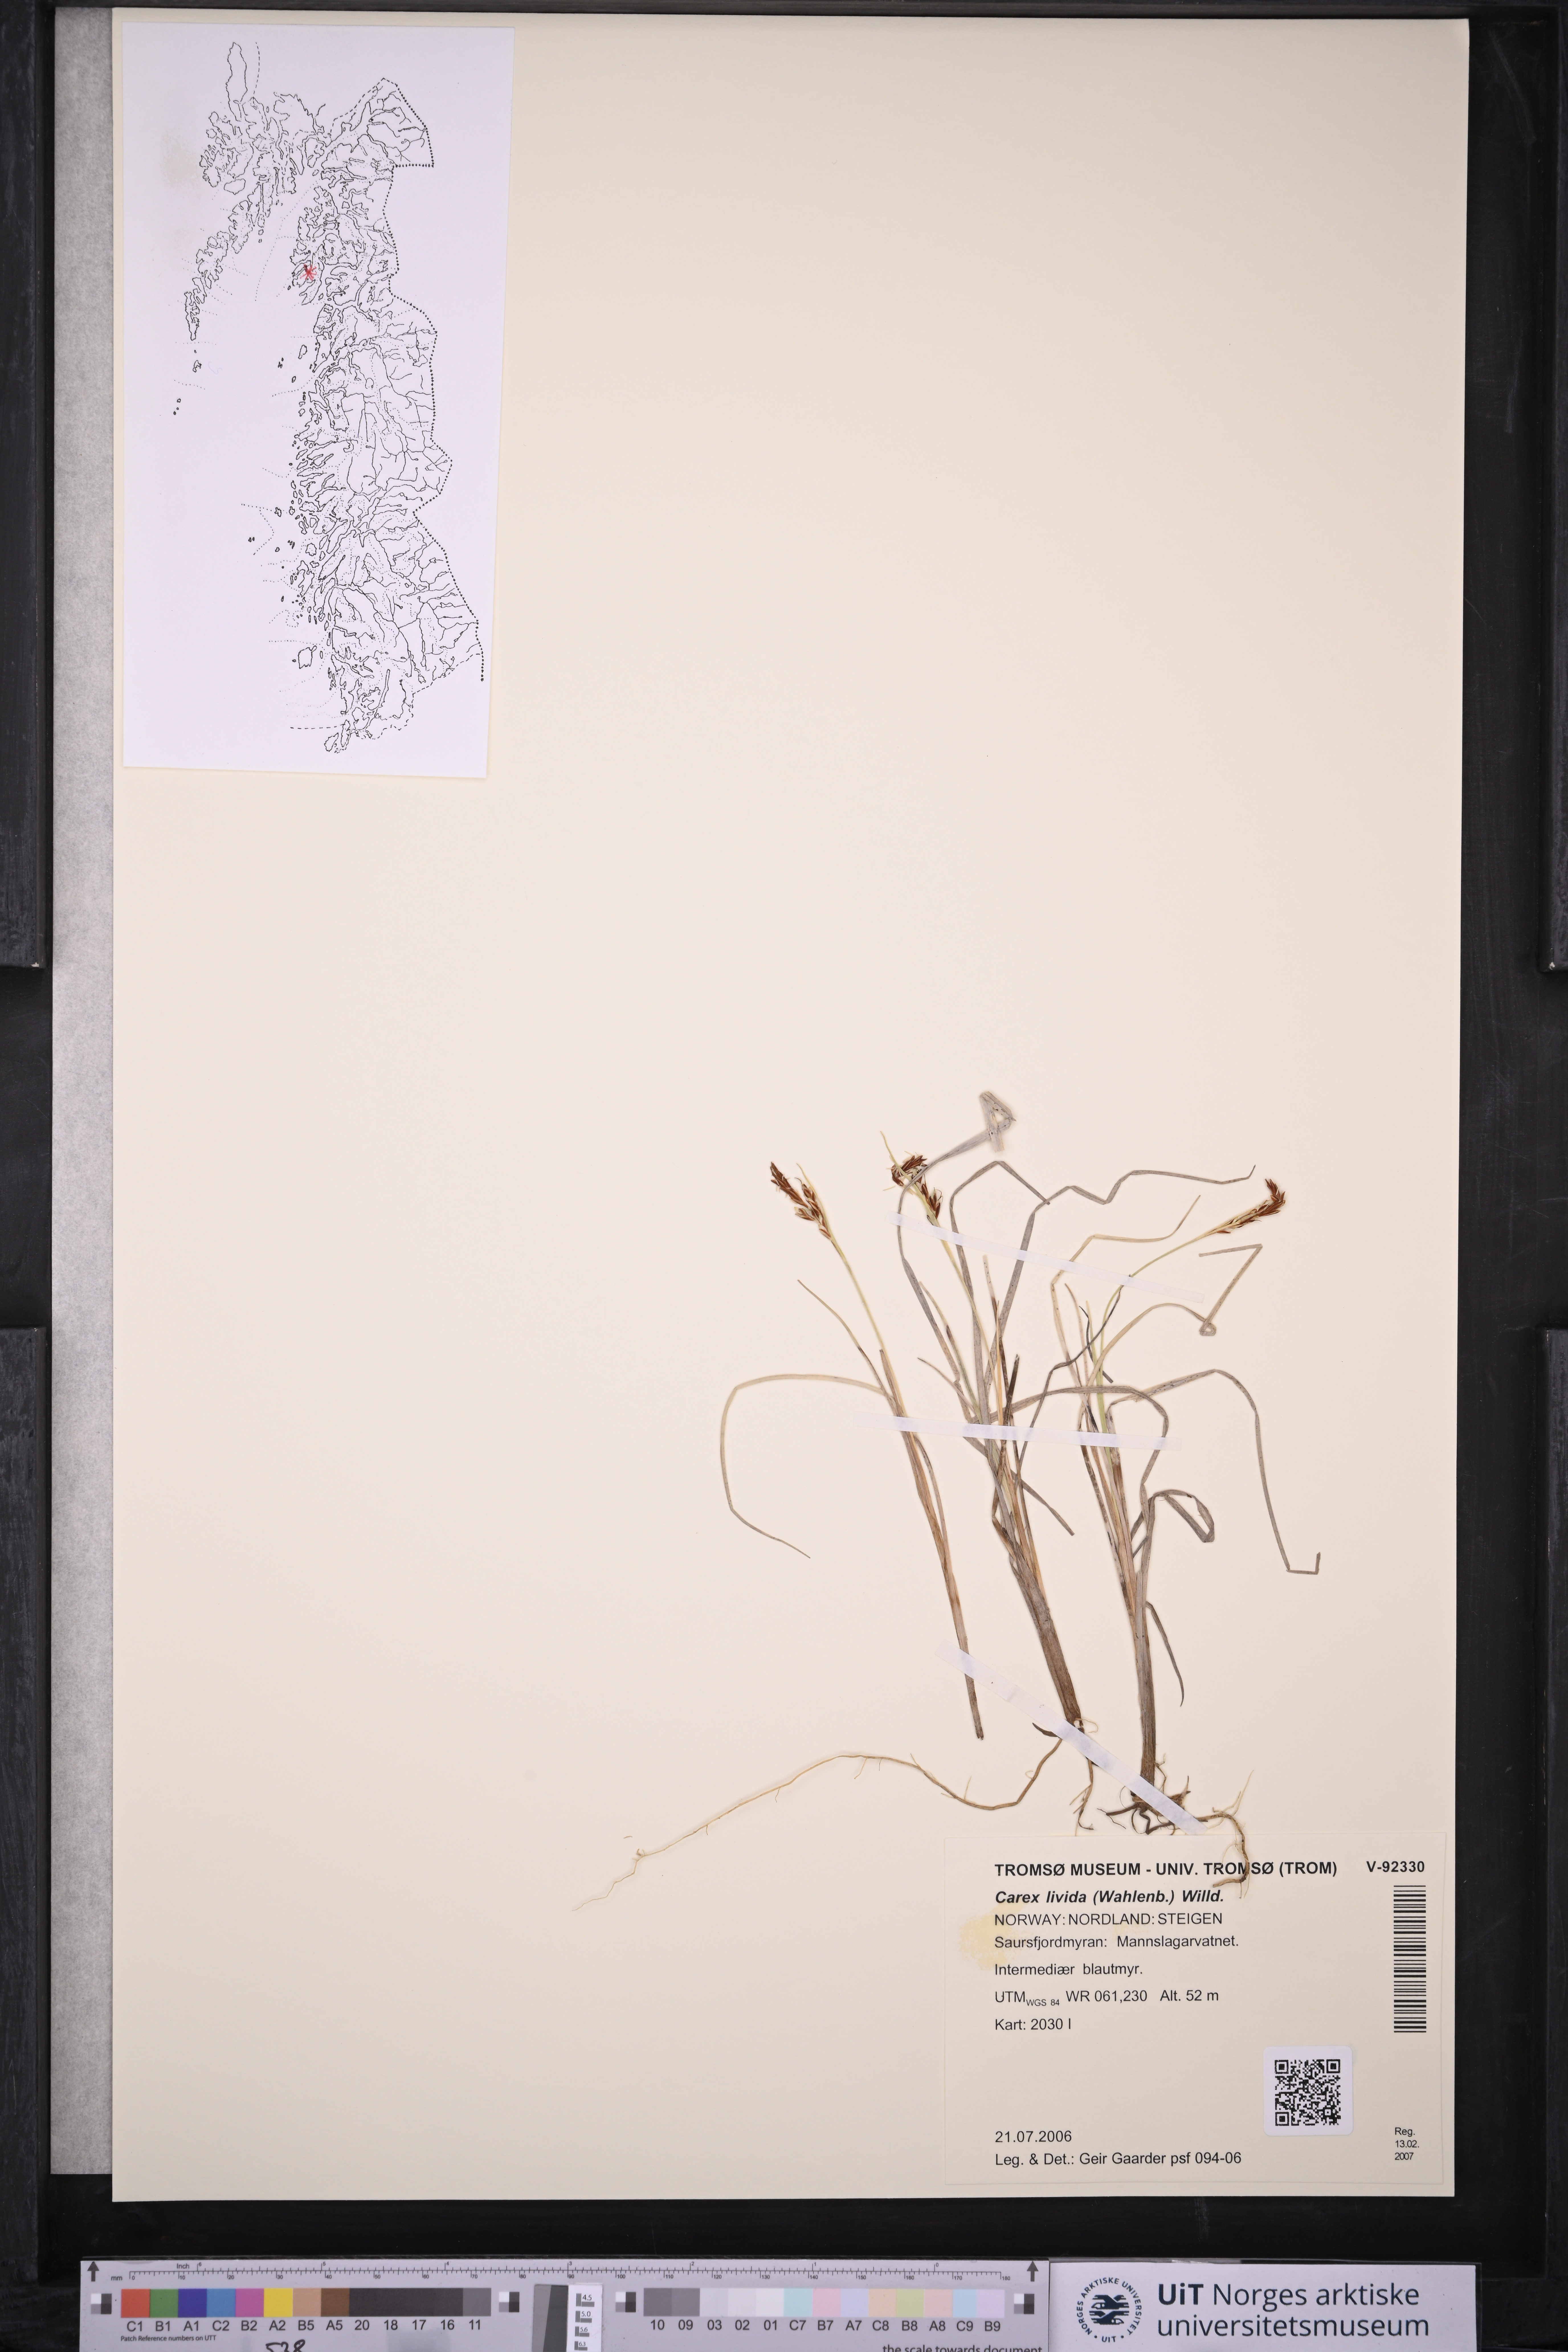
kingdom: Plantae
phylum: Tracheophyta
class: Liliopsida
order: Poales
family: Cyperaceae
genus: Carex
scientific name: Carex livida
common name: Livid sedge
